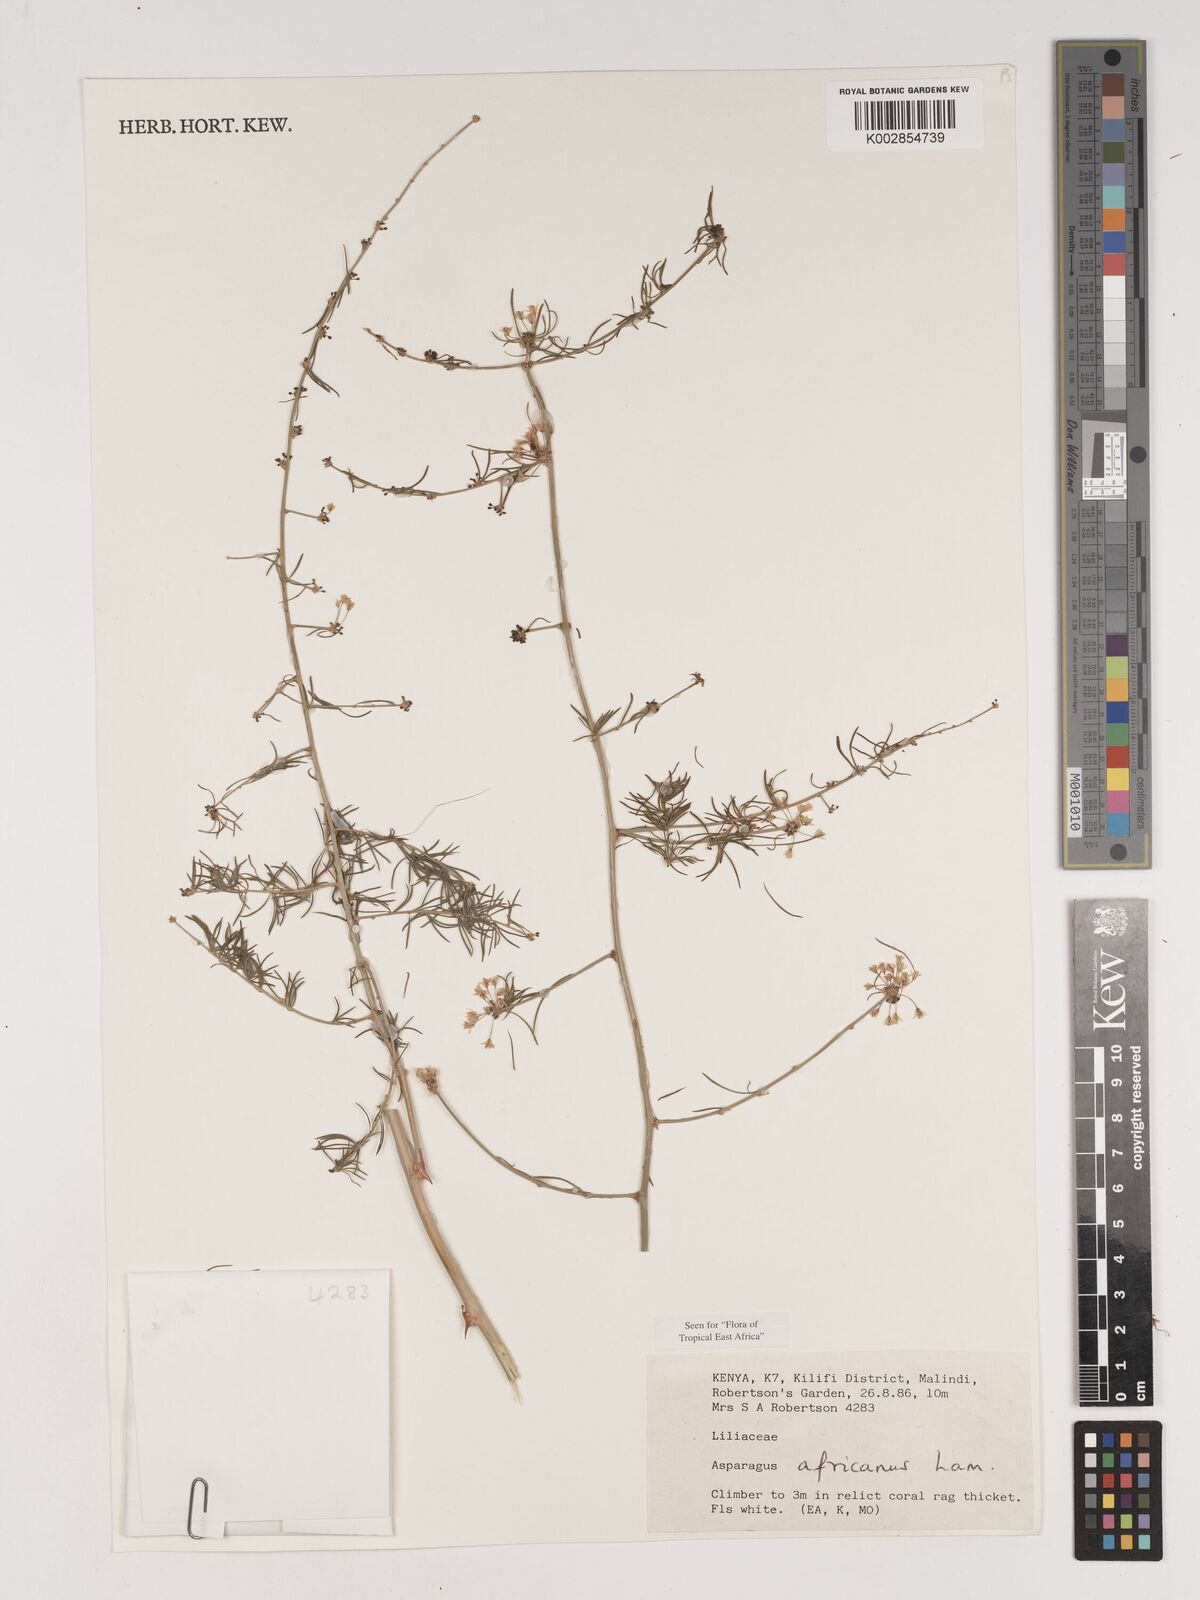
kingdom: Plantae
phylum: Tracheophyta
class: Liliopsida
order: Asparagales
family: Asparagaceae
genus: Asparagus
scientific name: Asparagus africanus
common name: Asparagus-fern
